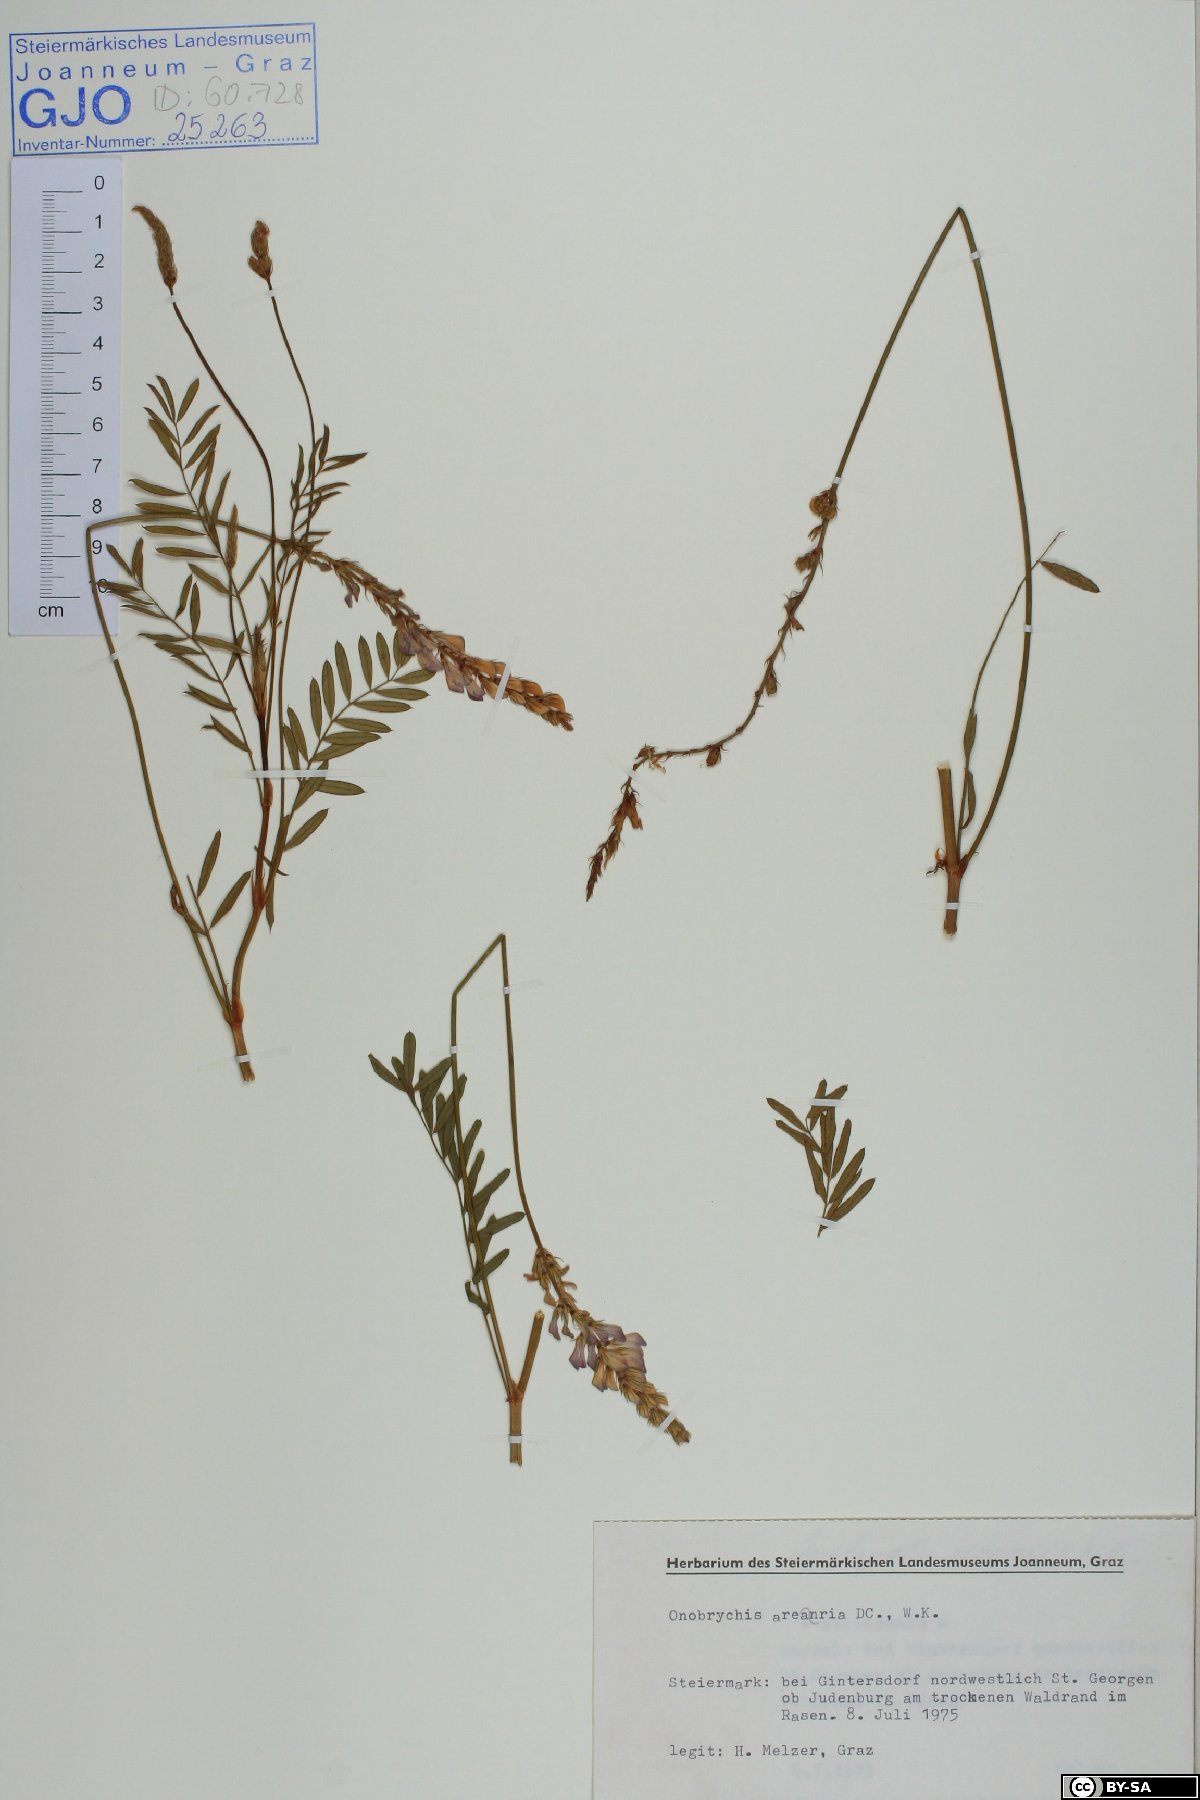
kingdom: Plantae
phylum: Tracheophyta
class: Magnoliopsida
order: Fabales
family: Fabaceae
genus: Onobrychis
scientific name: Onobrychis arenaria
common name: Sand esparcet
